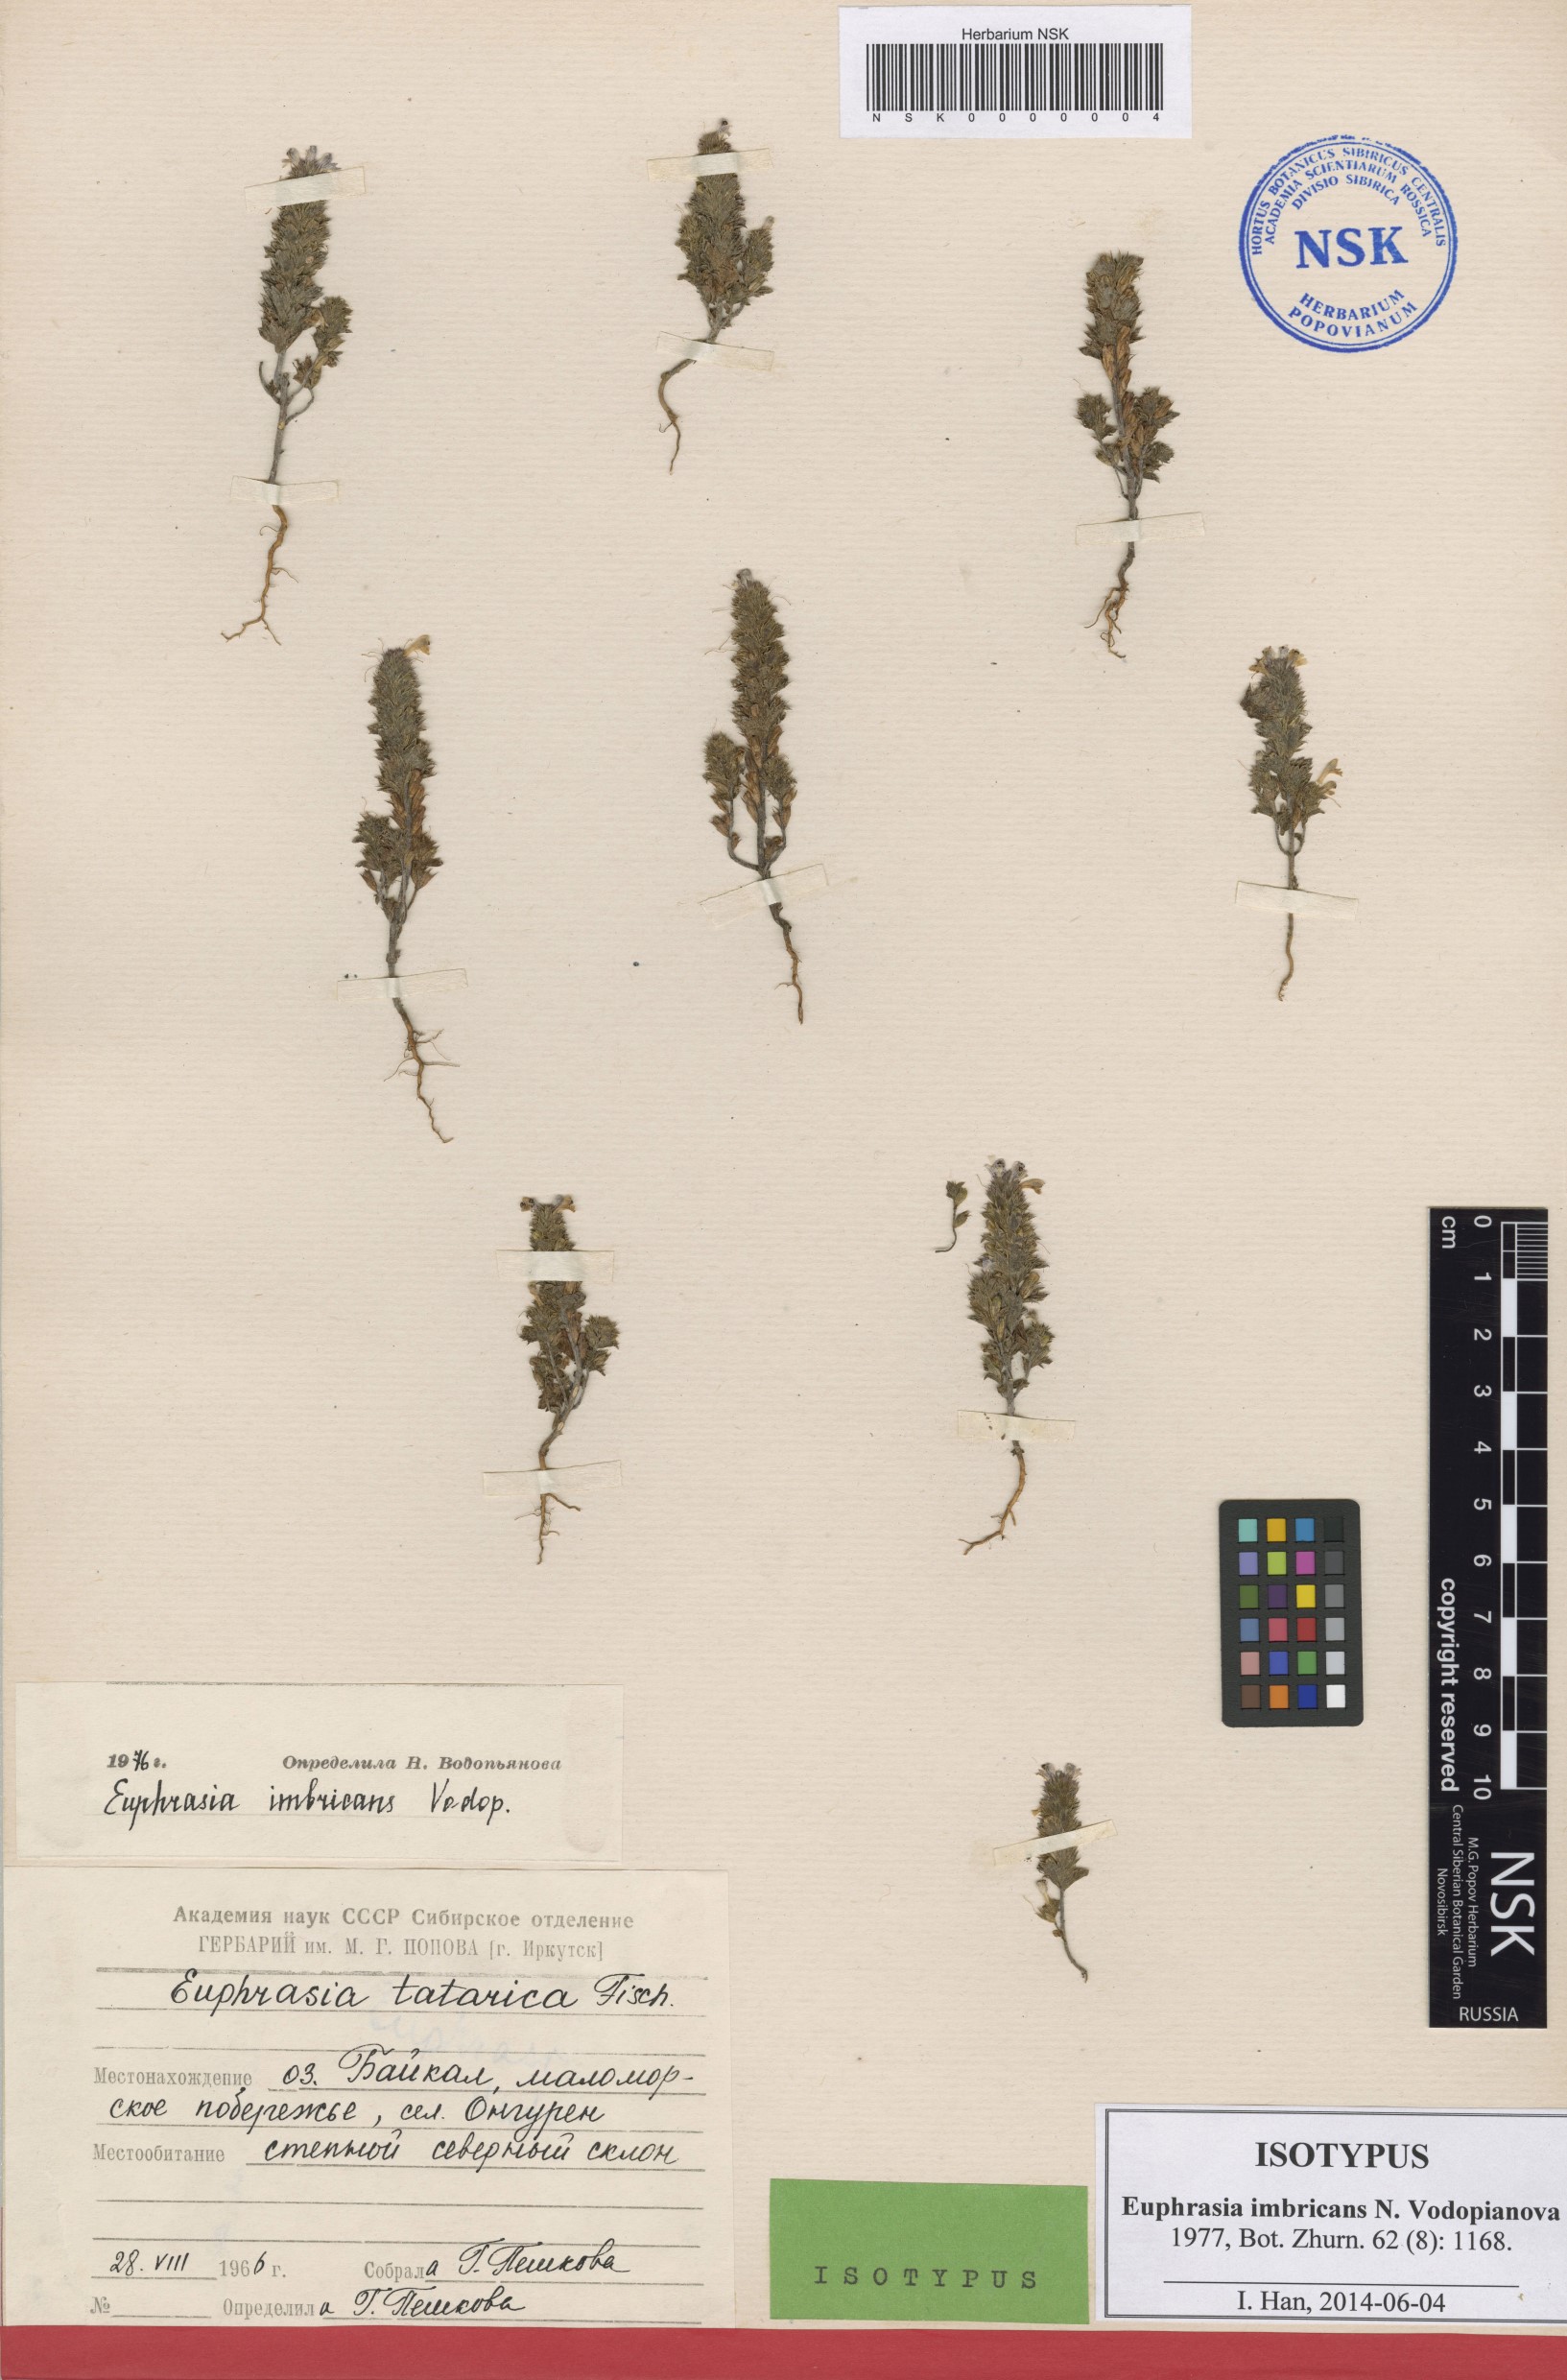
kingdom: Plantae
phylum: Tracheophyta
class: Magnoliopsida
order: Lamiales
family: Orobanchaceae
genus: Euphrasia
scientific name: Euphrasia pectinata
